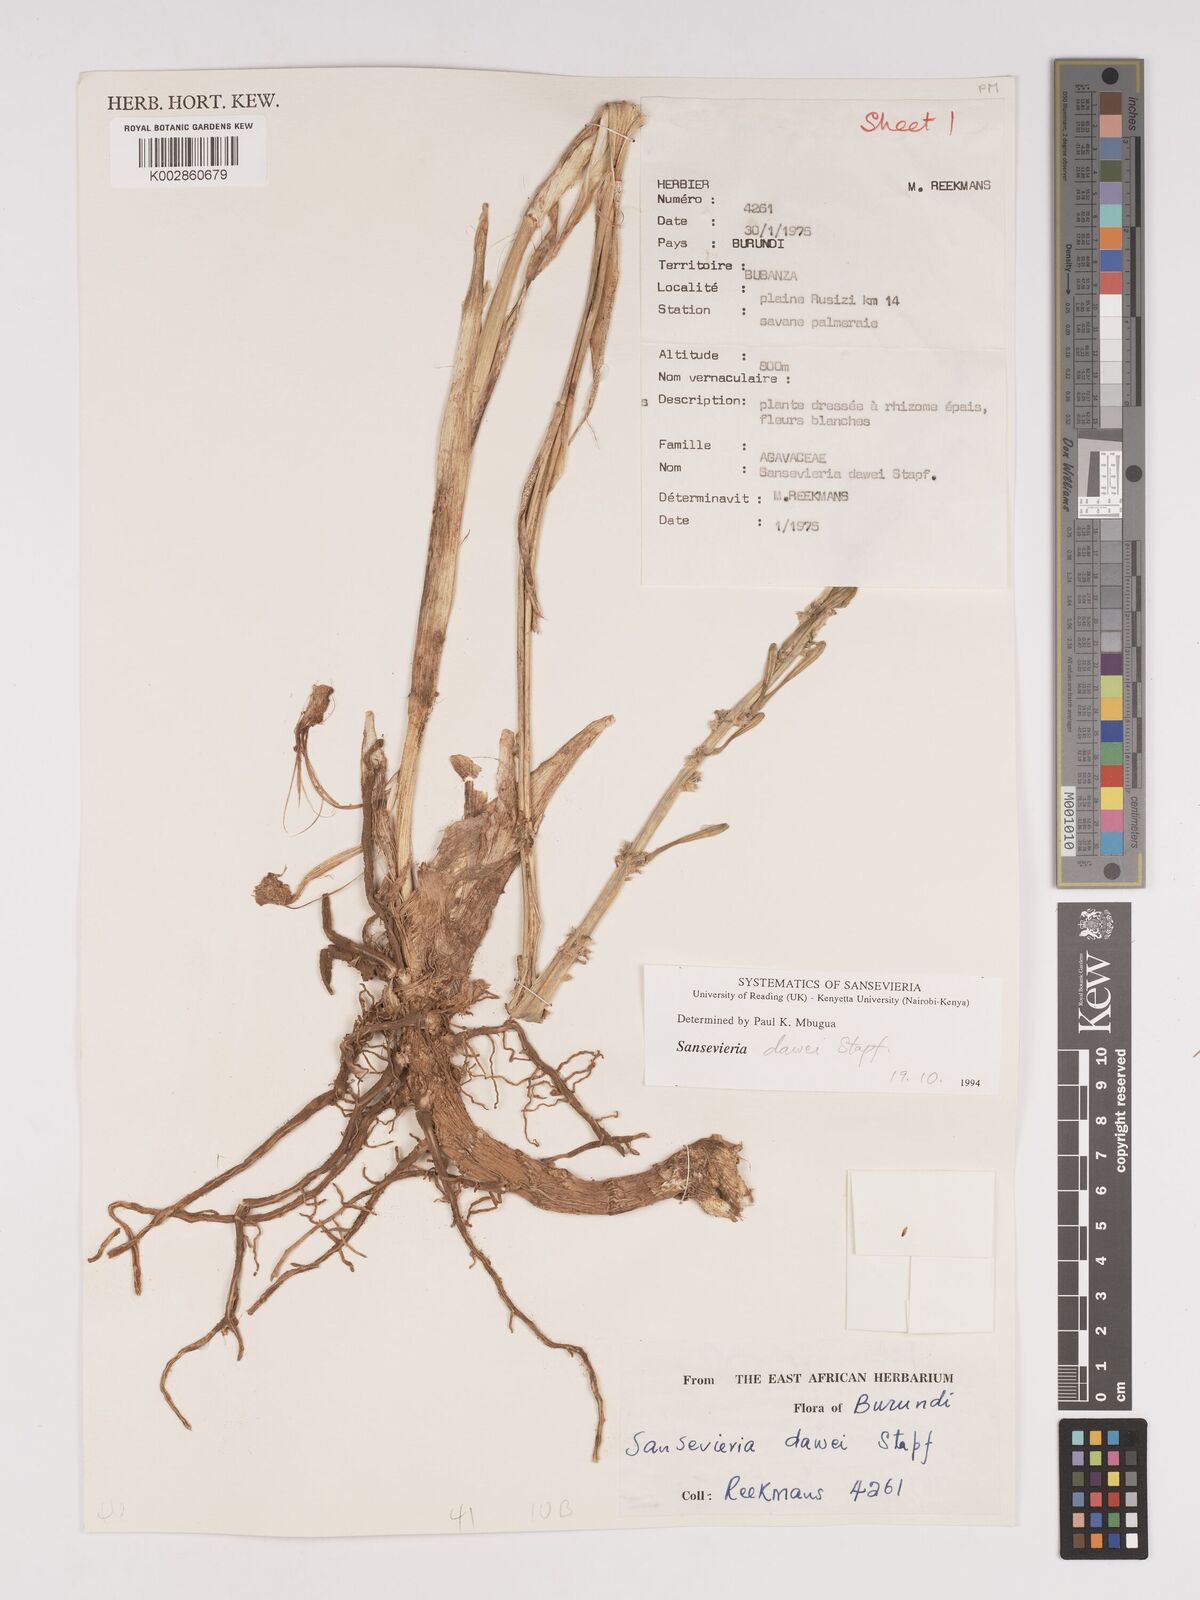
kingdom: Plantae
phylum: Tracheophyta
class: Liliopsida
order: Asparagales
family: Asparagaceae
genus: Dracaena
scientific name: Dracaena dawei
